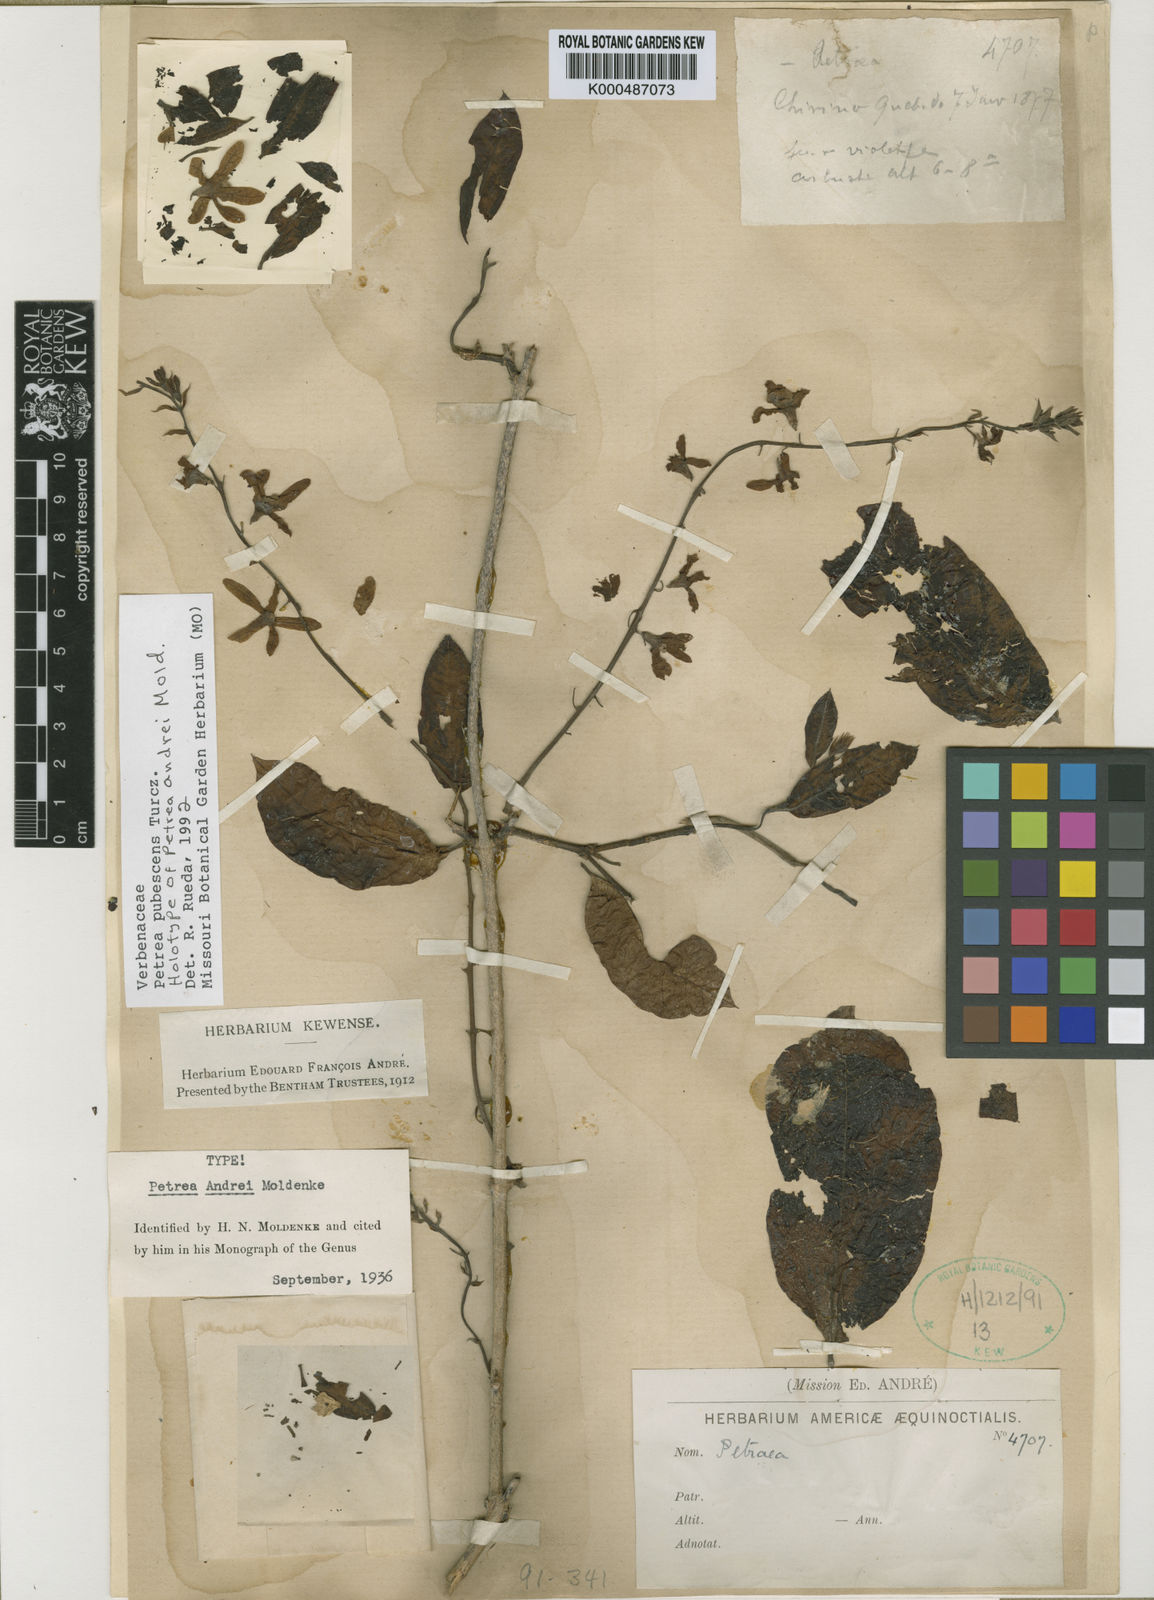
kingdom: Plantae
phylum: Tracheophyta
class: Magnoliopsida
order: Lamiales
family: Verbenaceae
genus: Petrea
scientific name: Petrea pubescens
